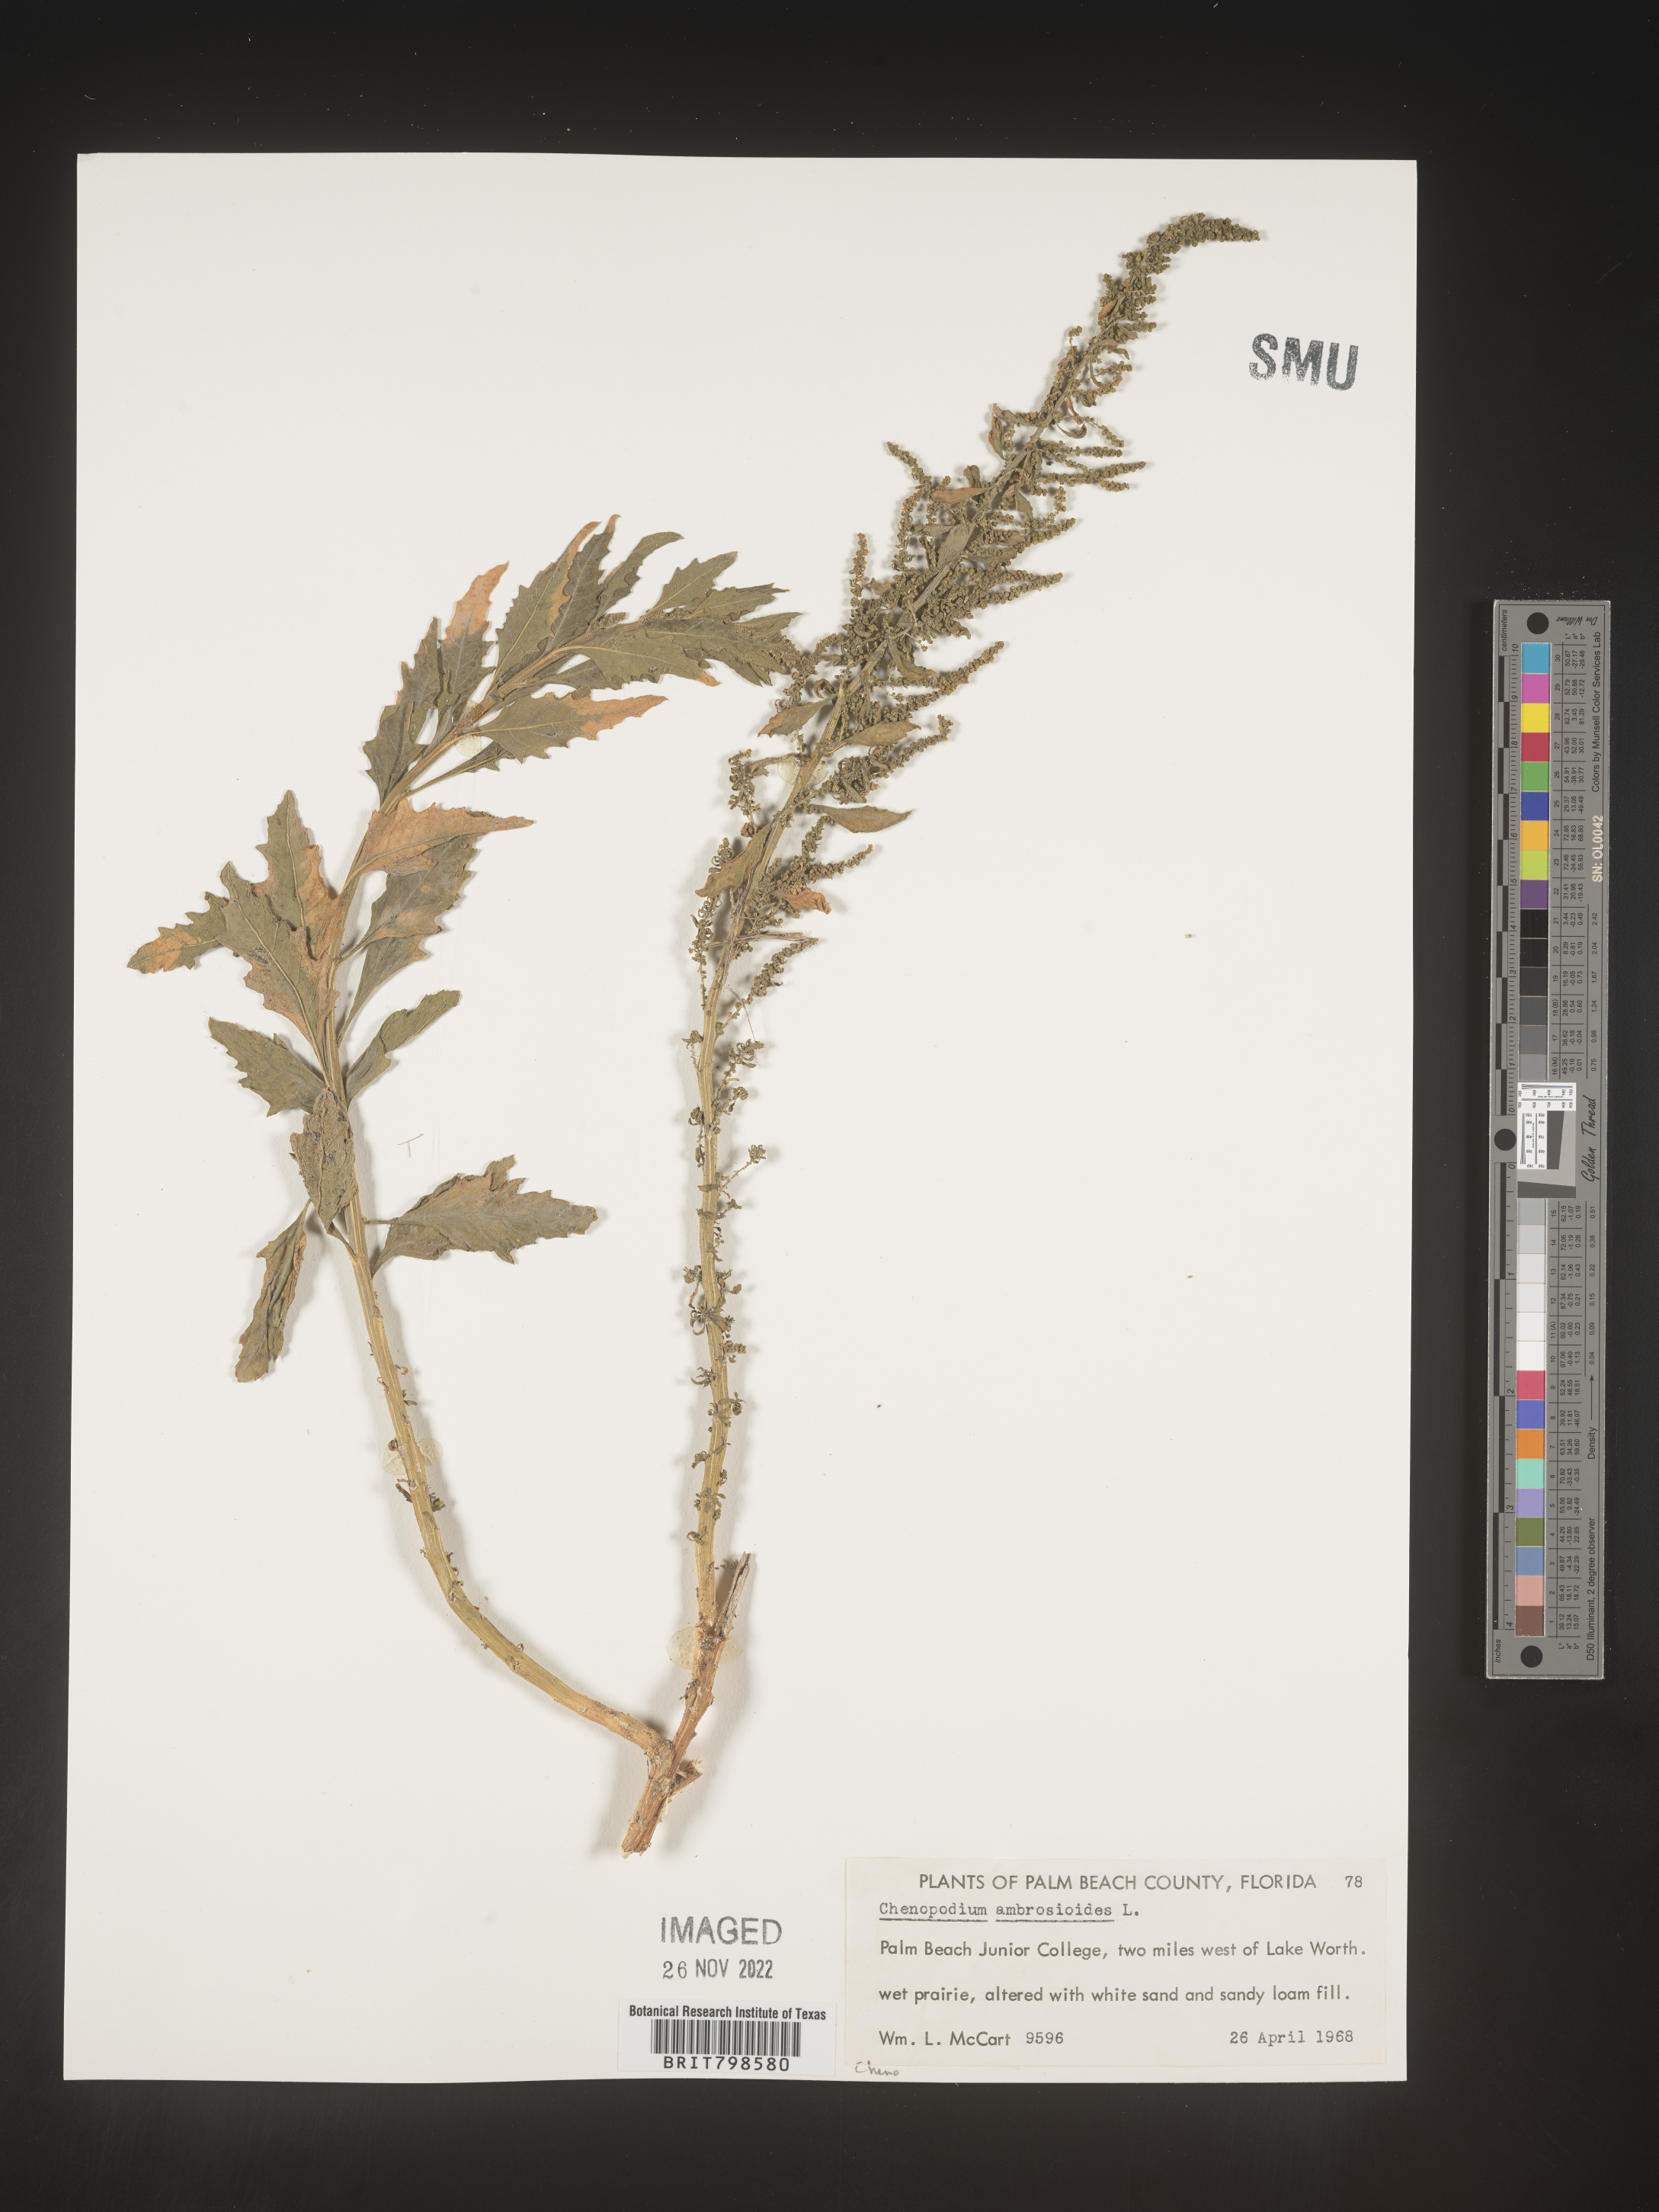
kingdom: Plantae
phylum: Tracheophyta
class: Magnoliopsida
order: Caryophyllales
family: Amaranthaceae
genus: Dysphania
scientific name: Dysphania ambrosioides
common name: Wormseed
